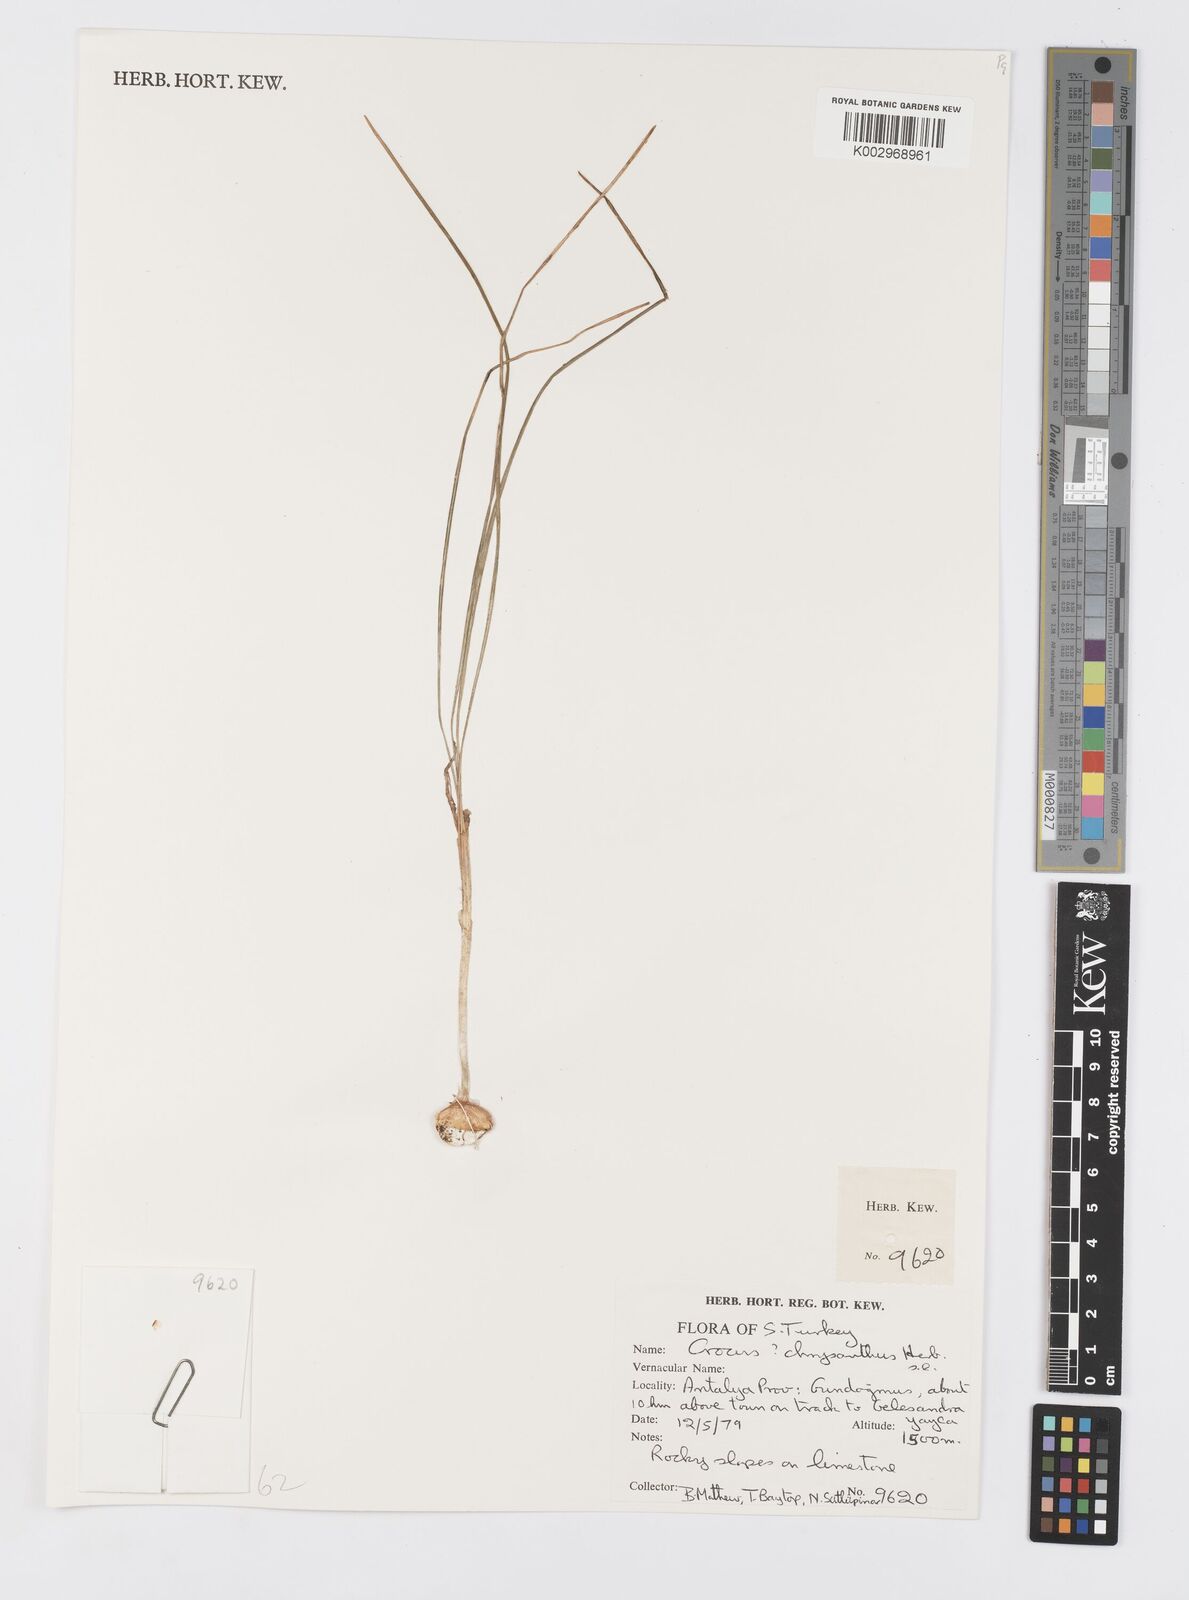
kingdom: Plantae
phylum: Tracheophyta
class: Liliopsida
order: Asparagales
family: Iridaceae
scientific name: Iridaceae
